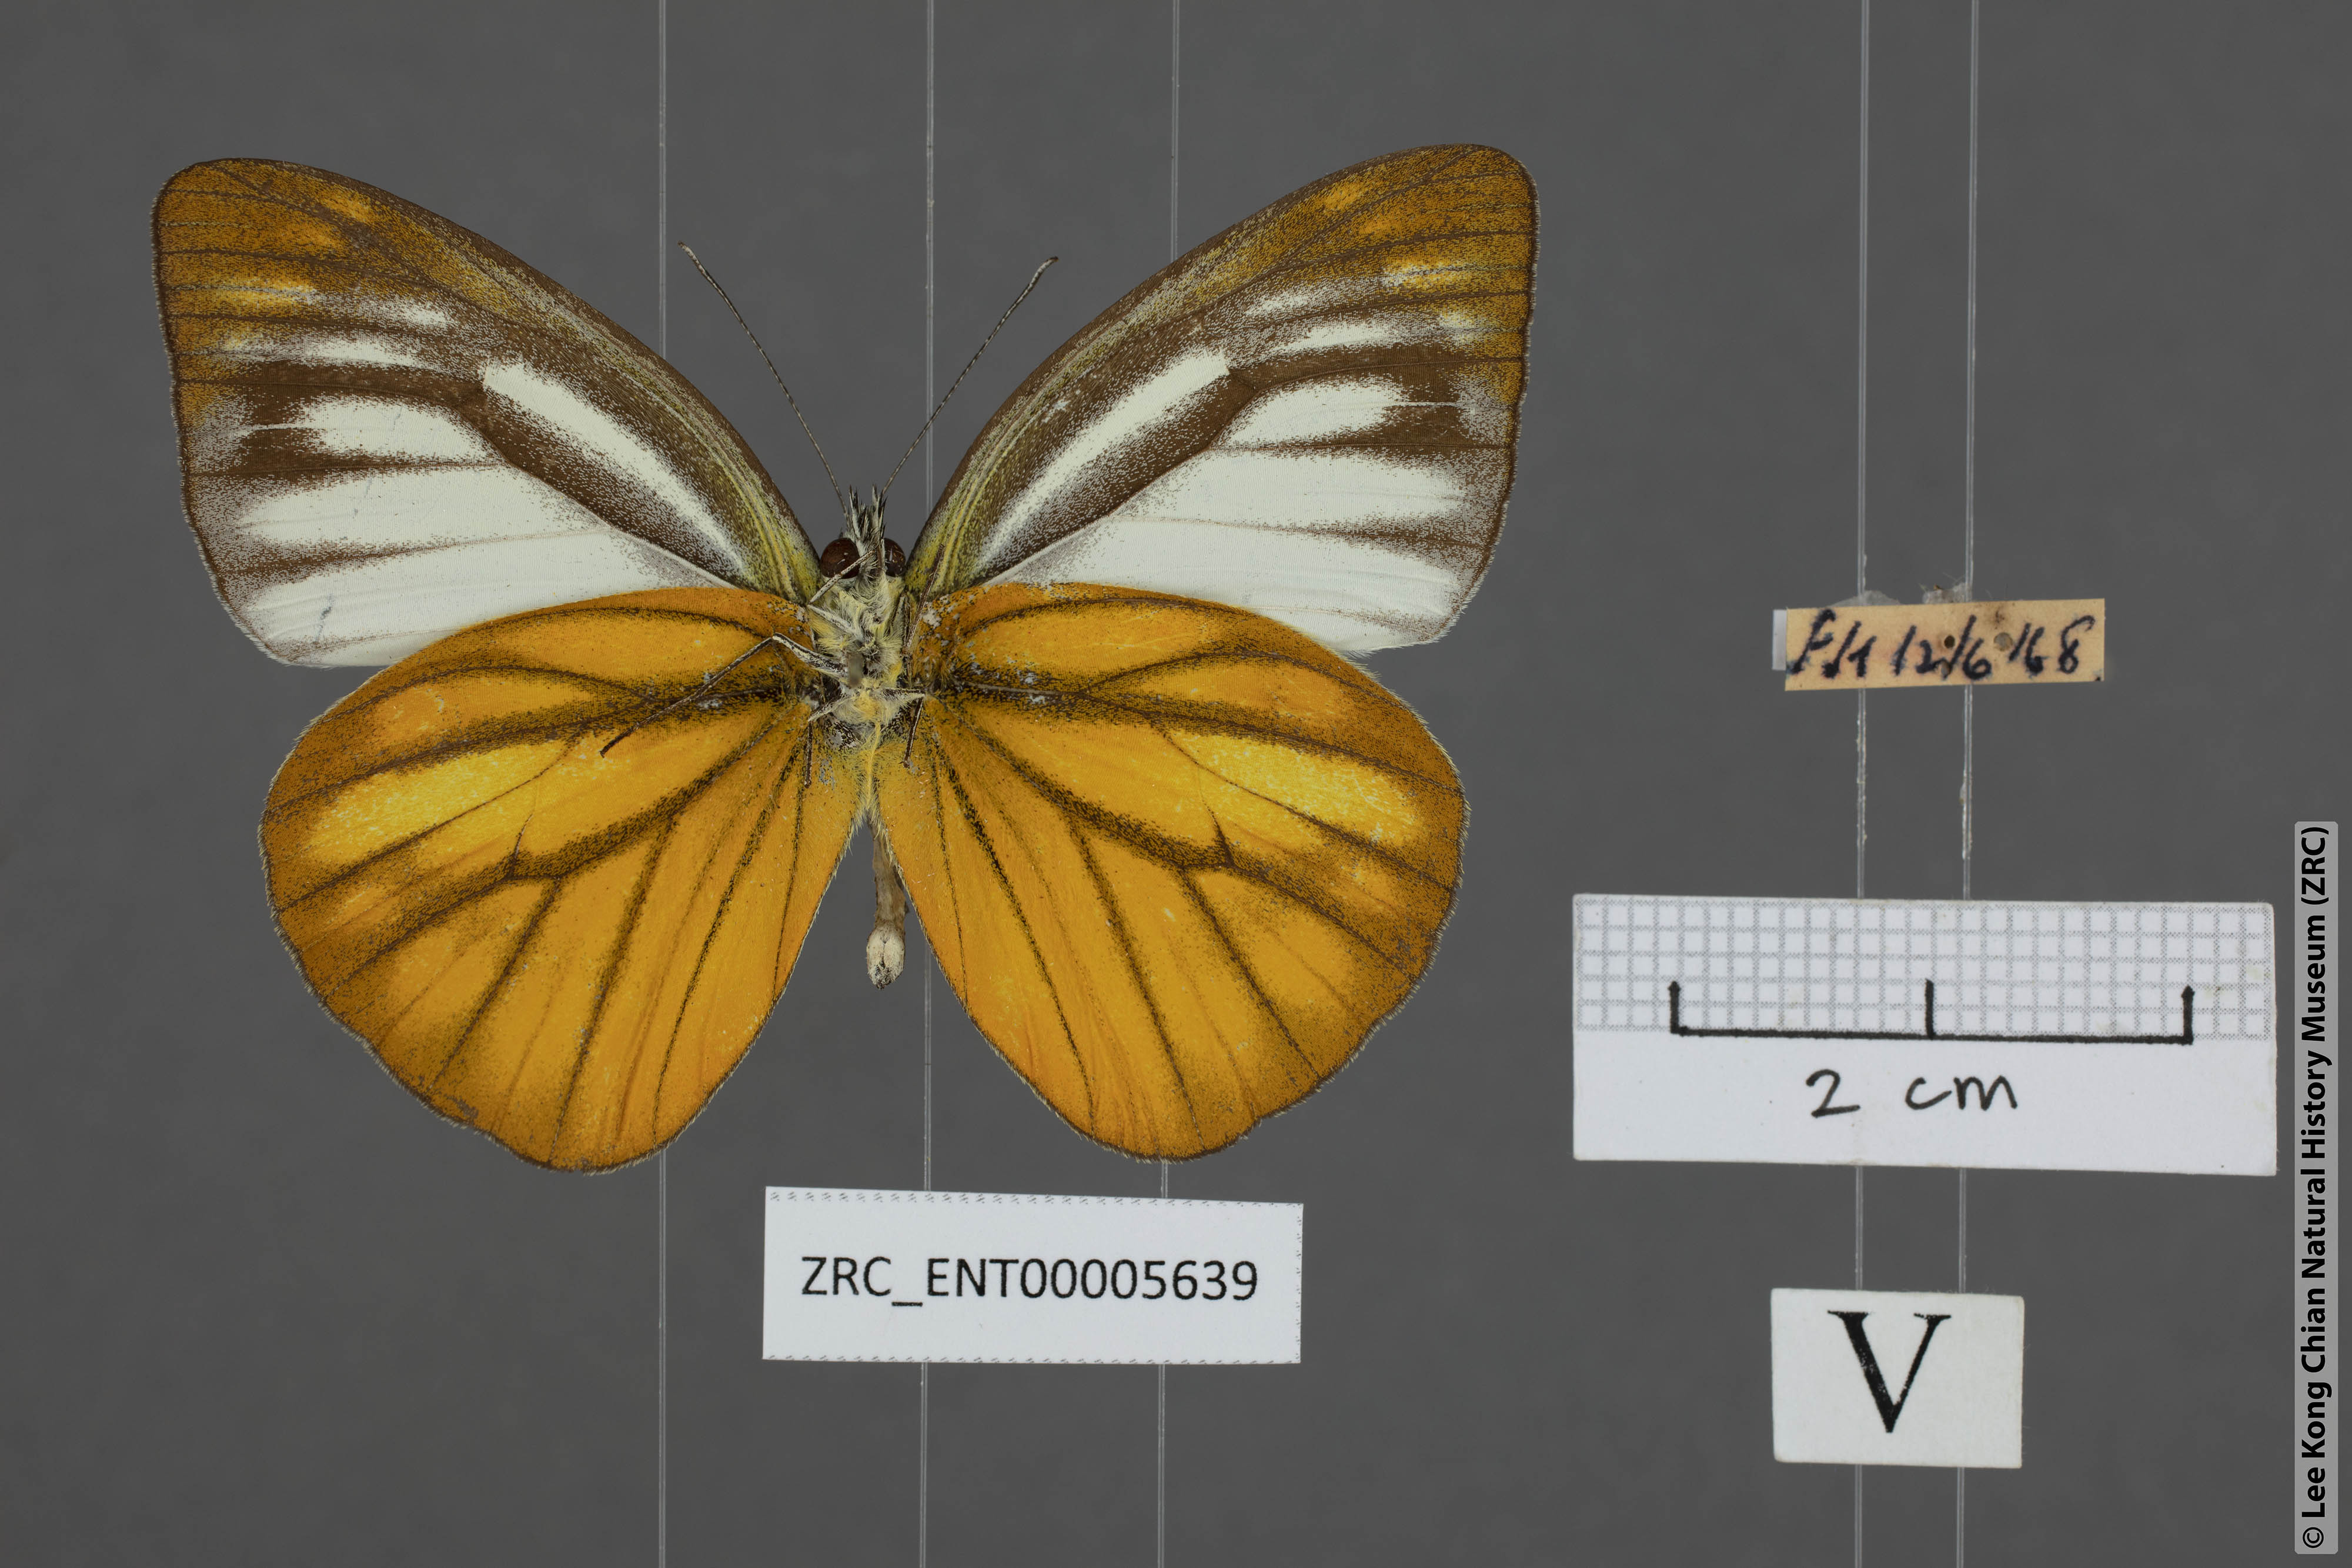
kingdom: Animalia
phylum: Arthropoda
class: Insecta
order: Lepidoptera
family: Pieridae
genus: Cepora
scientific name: Cepora nadina
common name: Lesser gull
